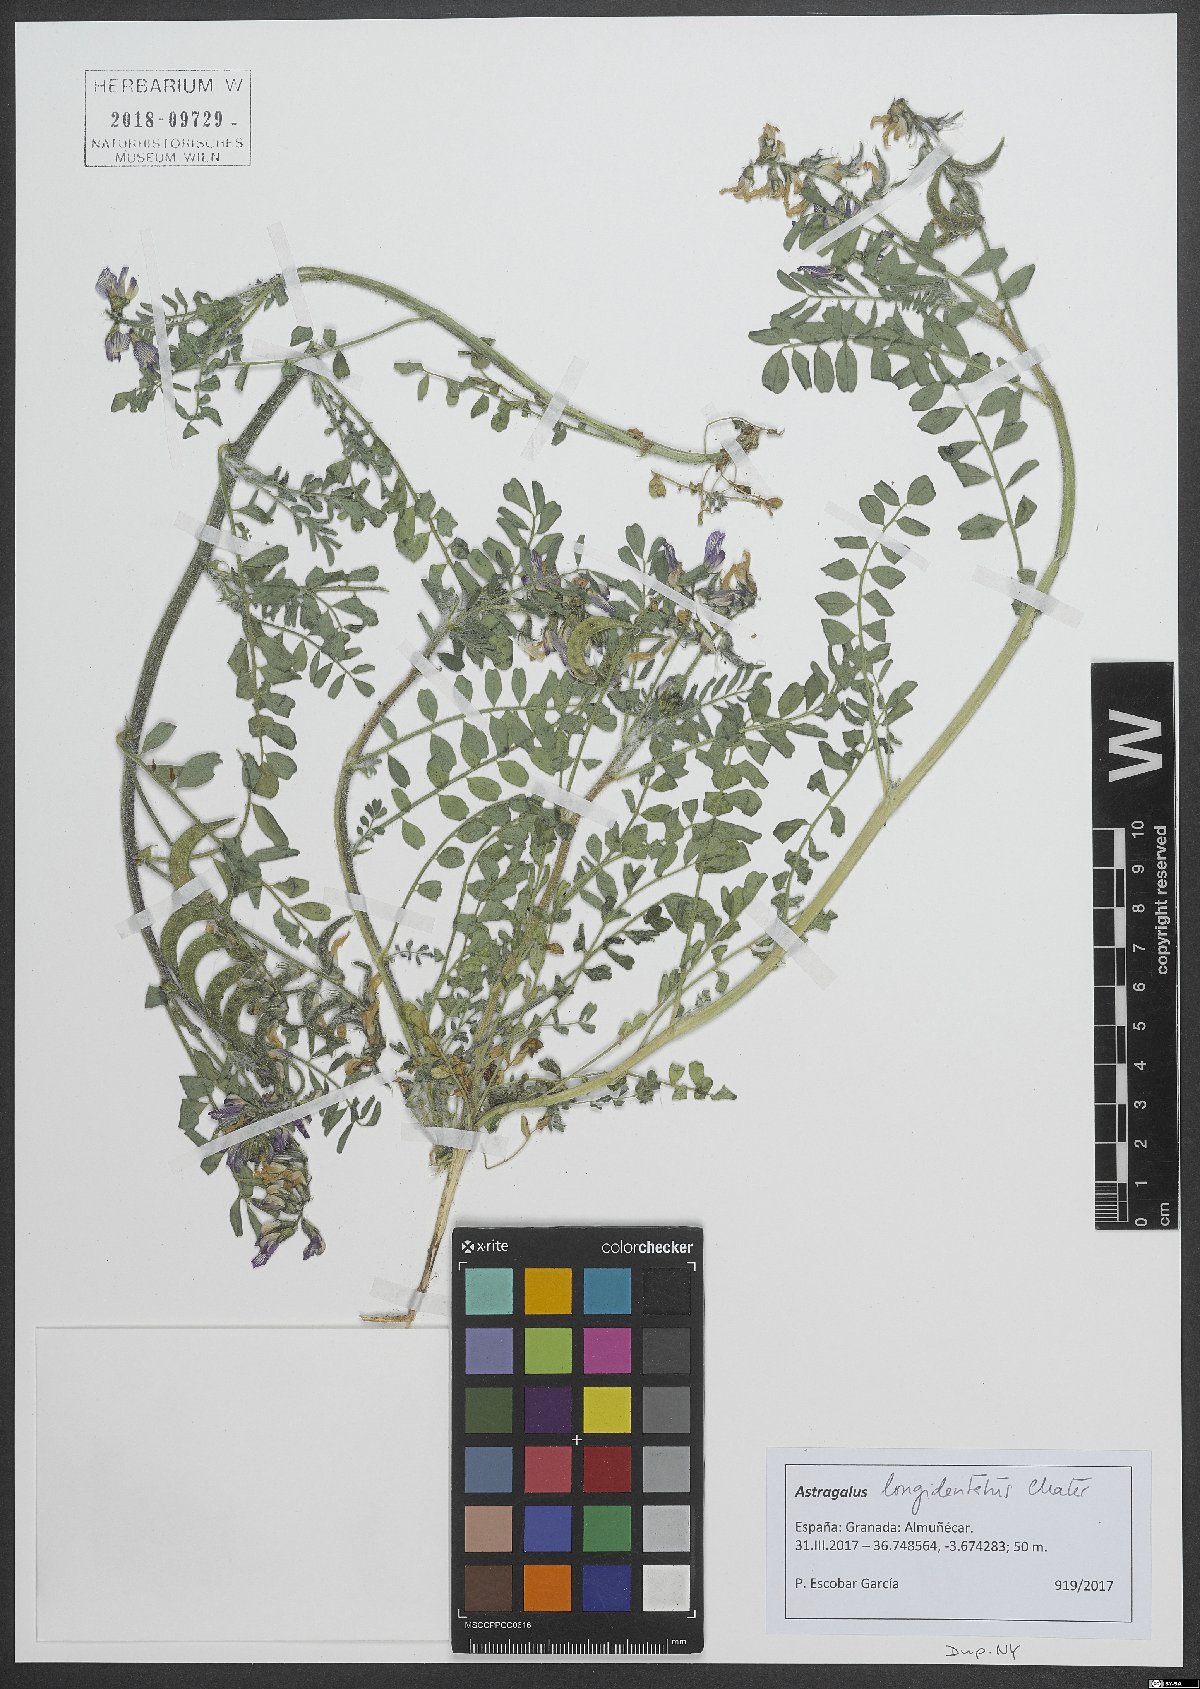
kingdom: Plantae
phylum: Tracheophyta
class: Magnoliopsida
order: Fabales
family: Fabaceae
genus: Astragalus
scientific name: Astragalus longidentatus
